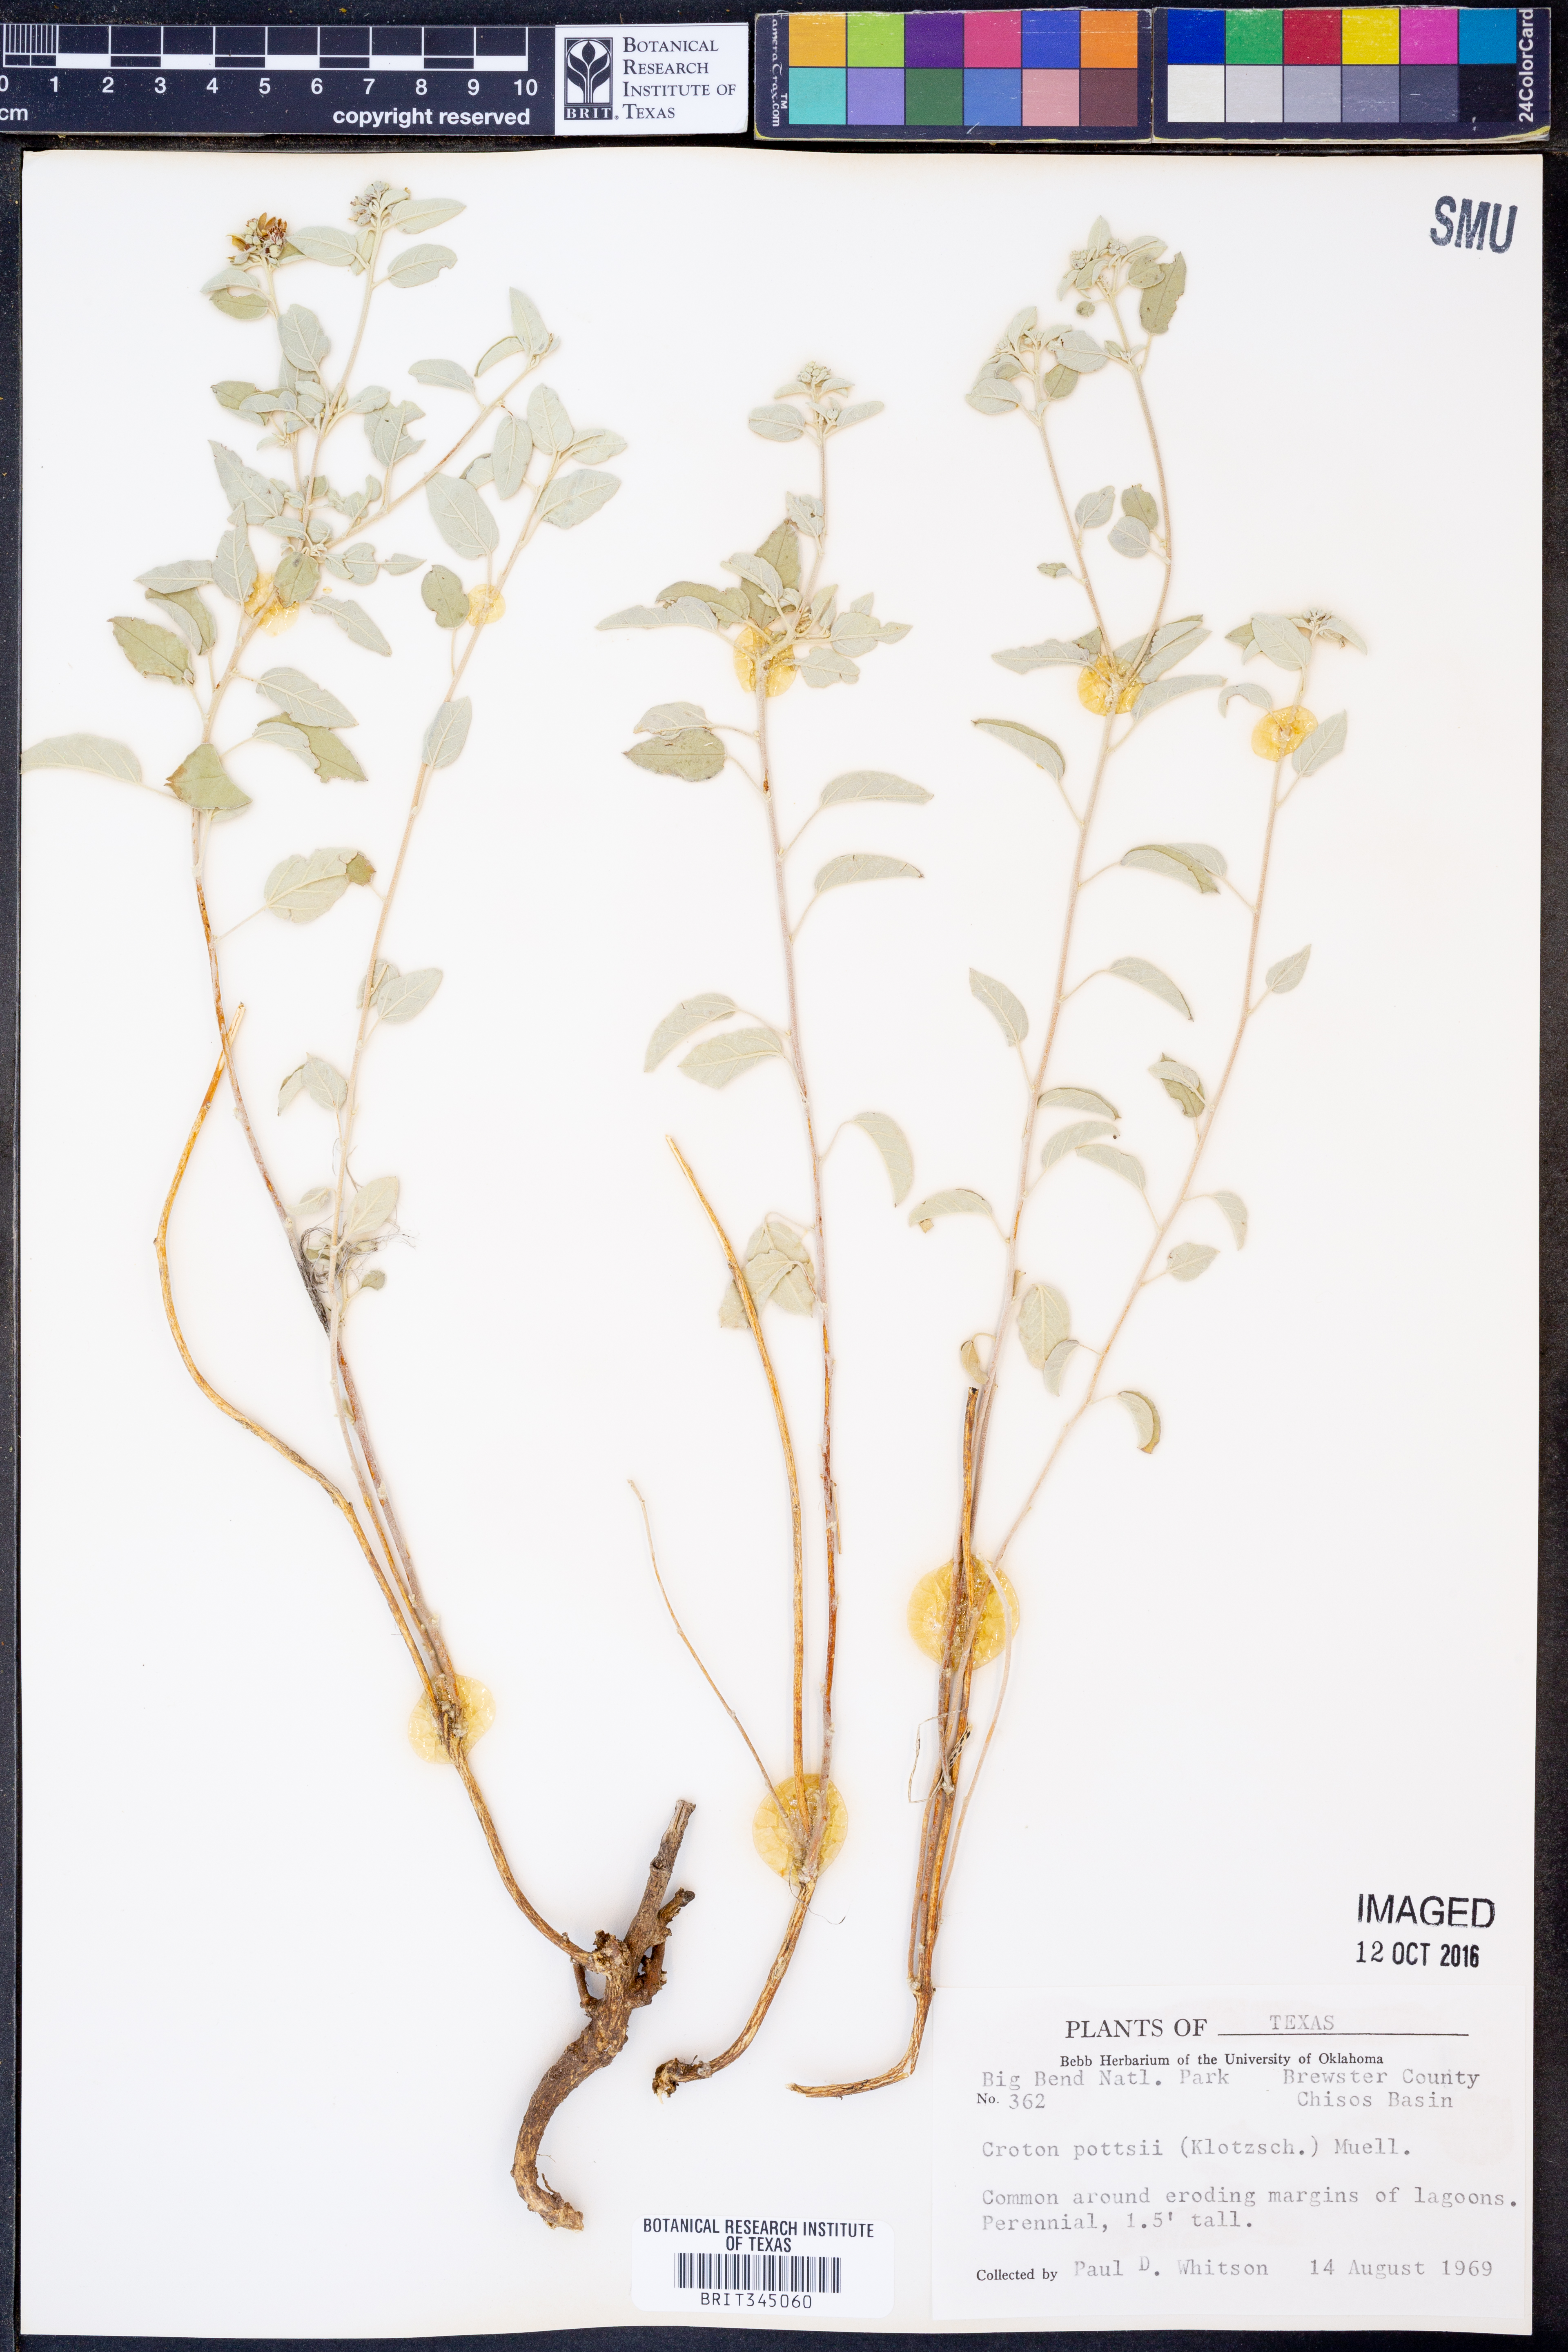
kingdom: Plantae
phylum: Tracheophyta
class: Magnoliopsida
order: Malpighiales
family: Euphorbiaceae
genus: Croton
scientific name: Croton pottsii
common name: Leatherweed
